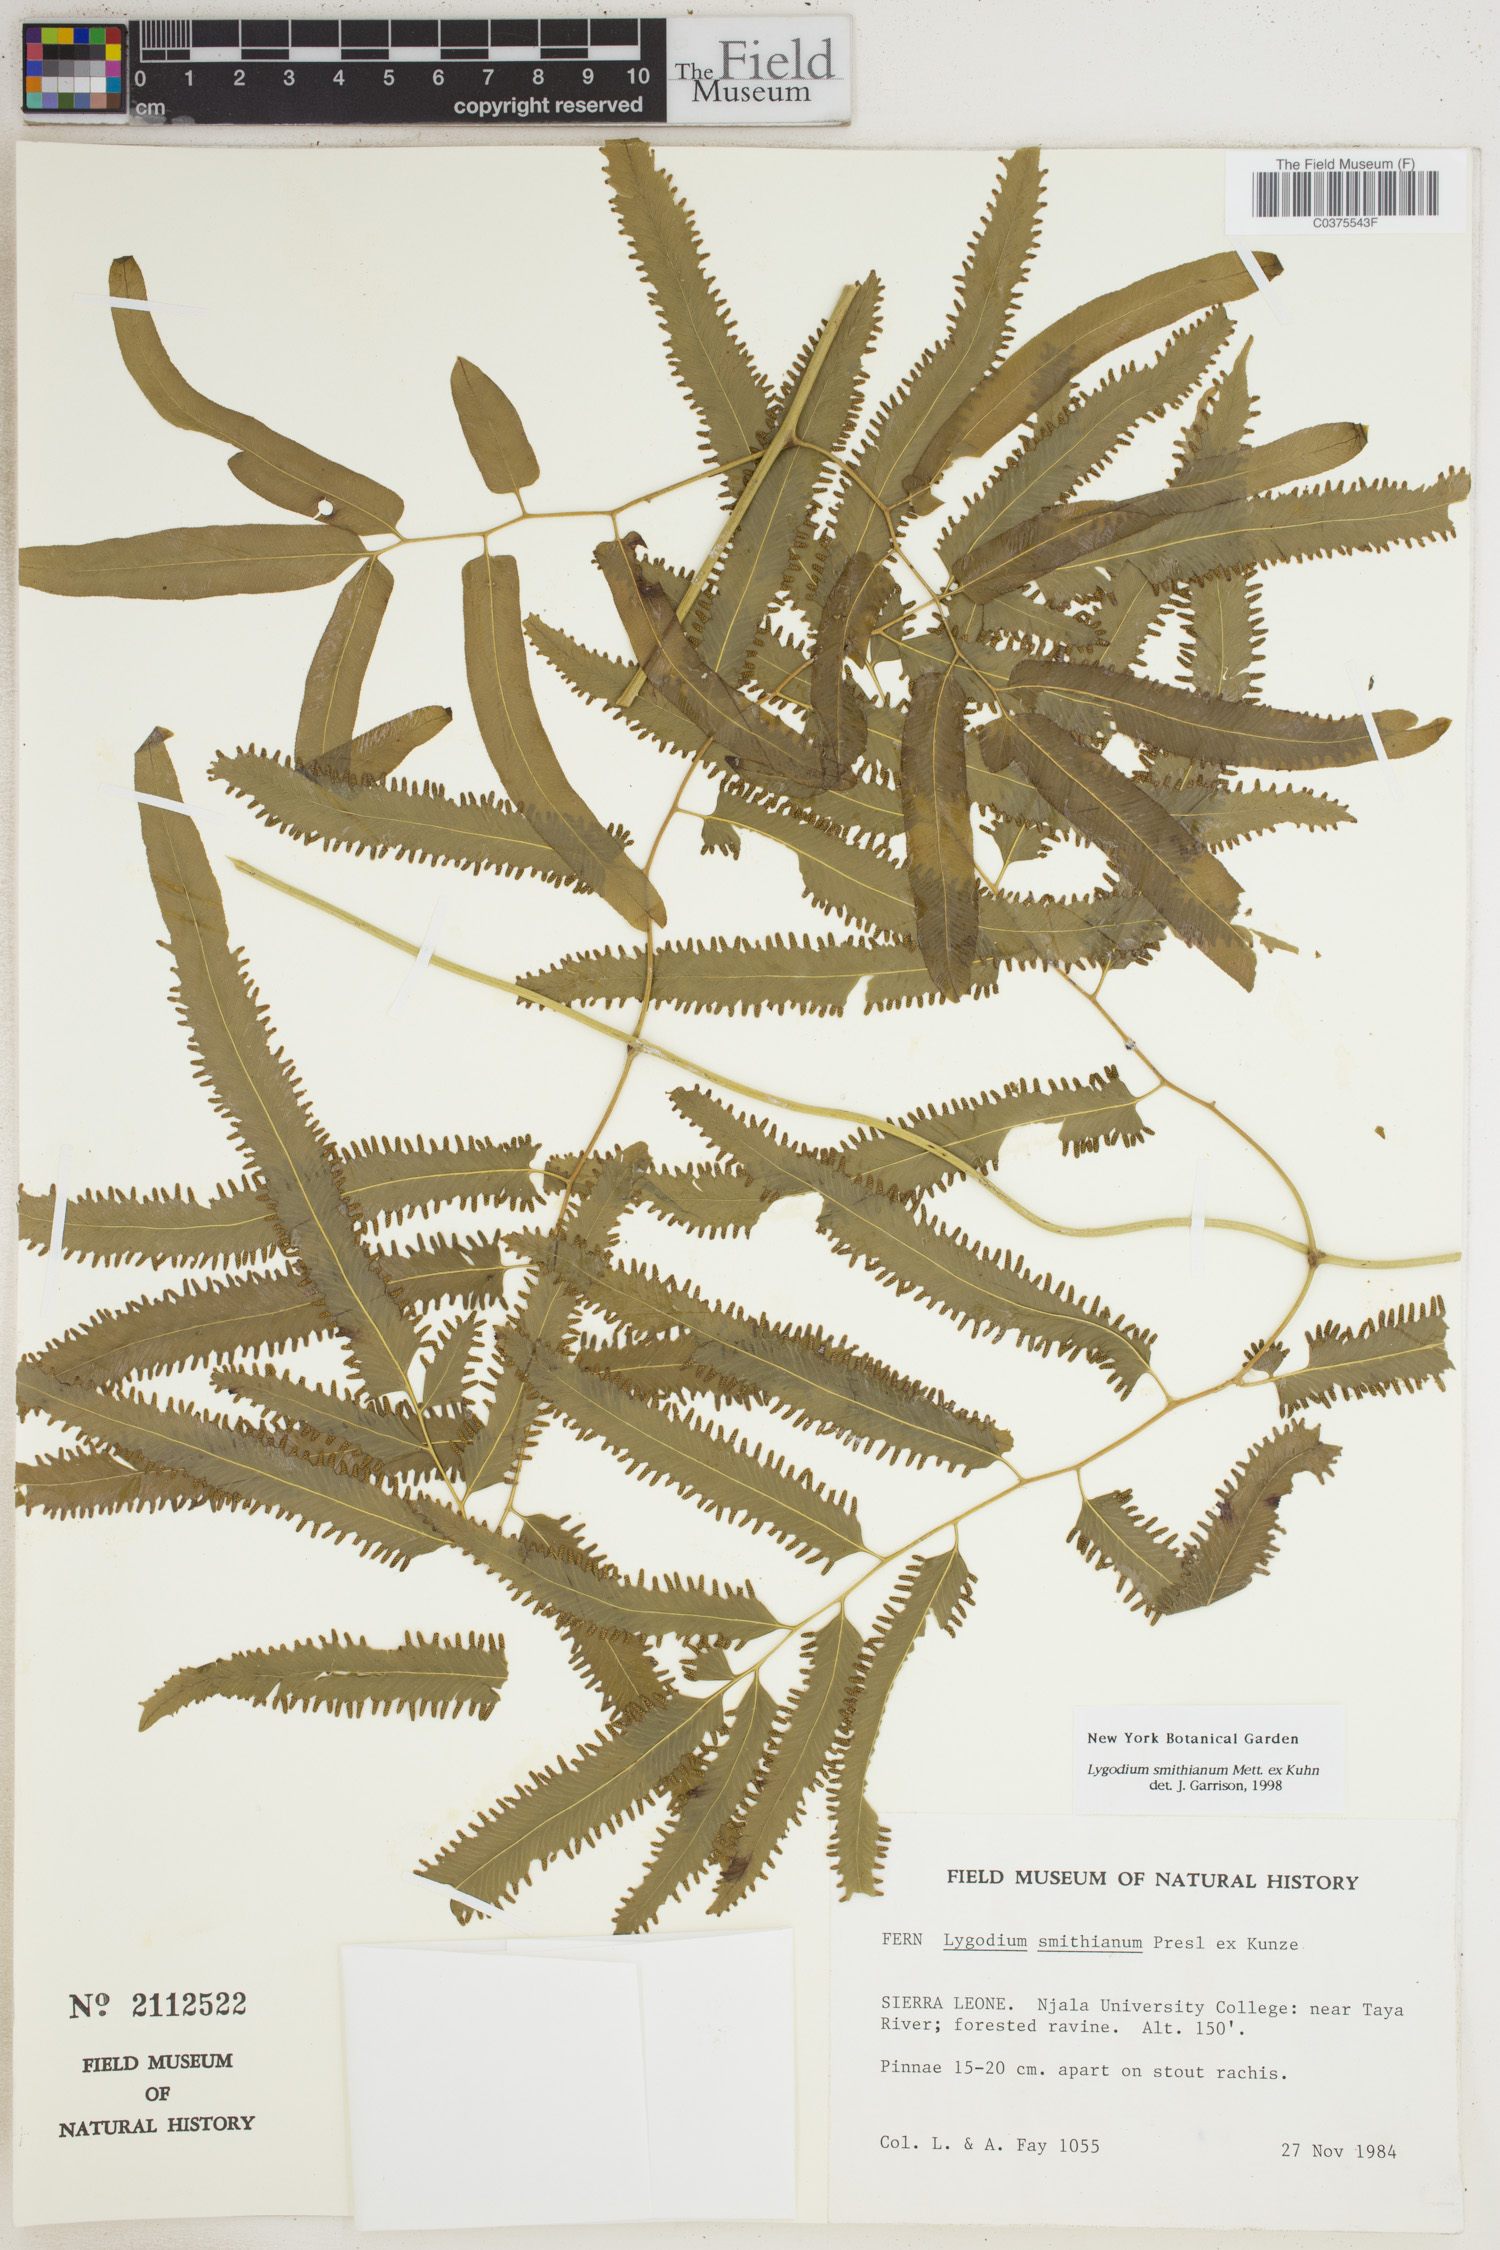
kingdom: Plantae
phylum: Tracheophyta
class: Polypodiopsida
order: Schizaeales
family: Lygodiaceae
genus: Lygodium
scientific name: Lygodium smithianum
